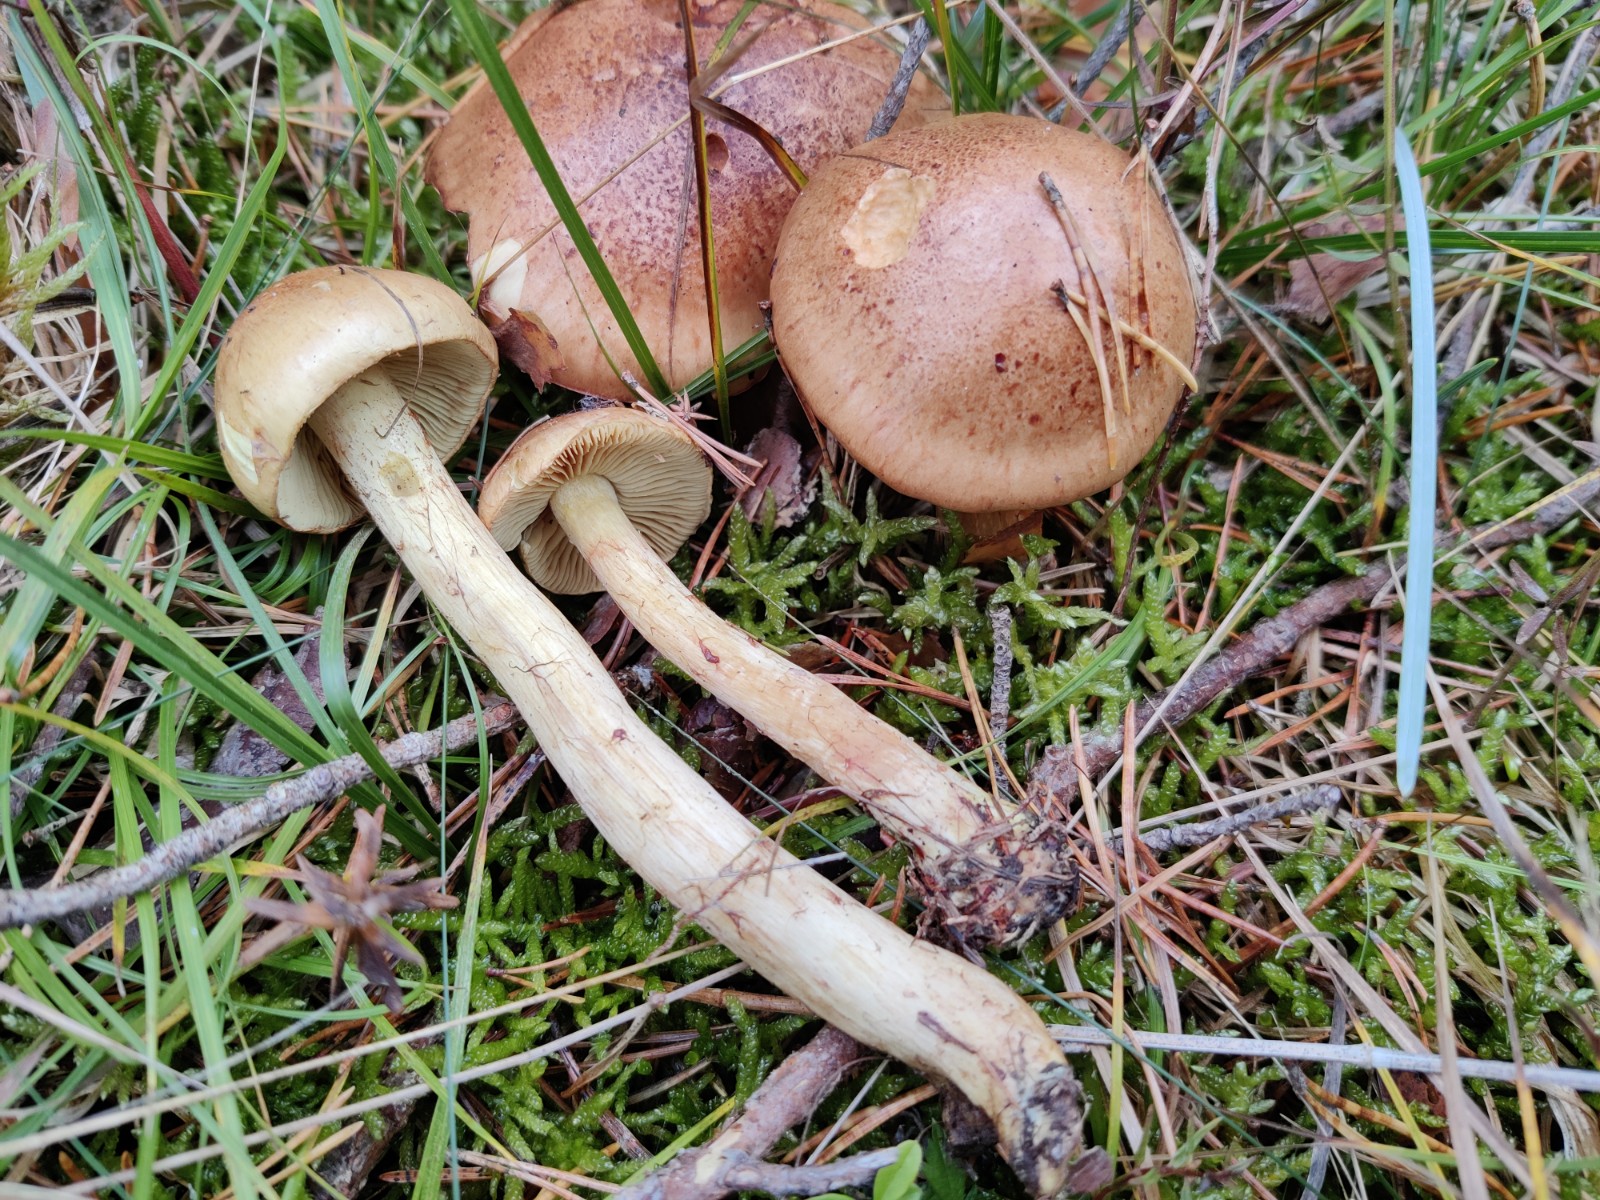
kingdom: Fungi
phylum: Basidiomycota
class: Agaricomycetes
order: Agaricales
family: Cortinariaceae
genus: Phlegmacium
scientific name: Phlegmacium mussivum
